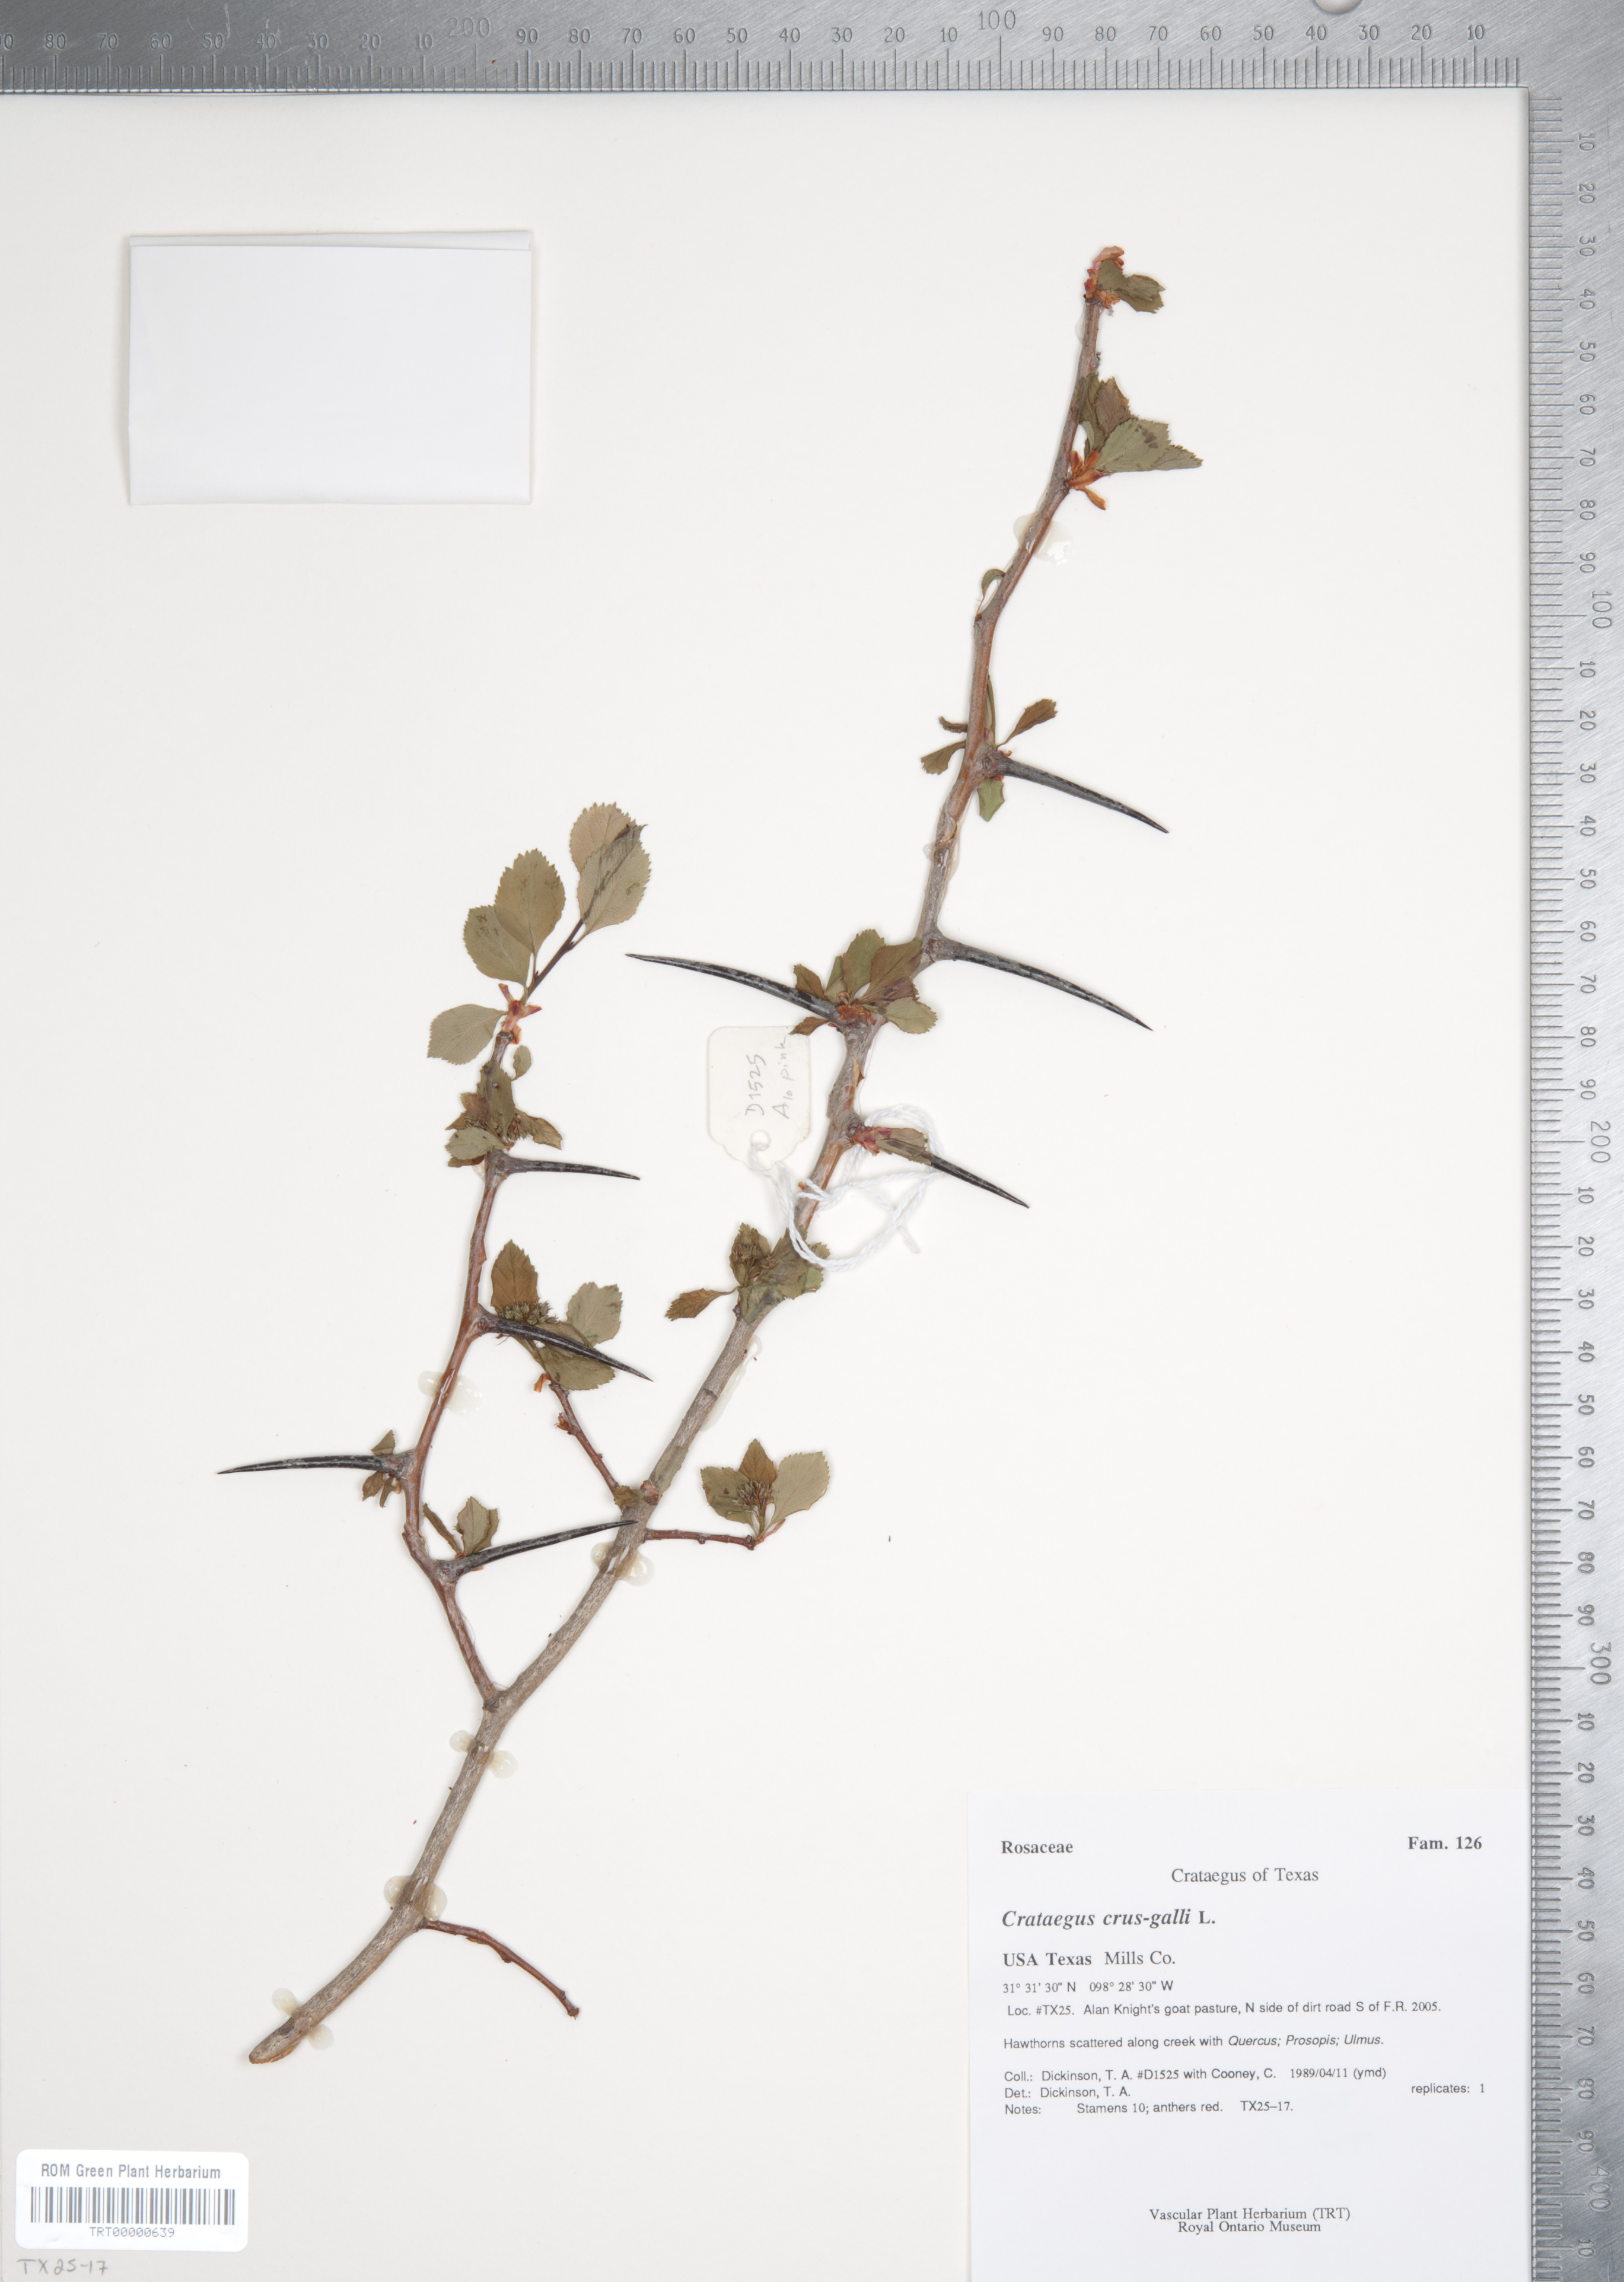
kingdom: Plantae
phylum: Tracheophyta
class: Magnoliopsida
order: Rosales
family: Rosaceae
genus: Crataegus
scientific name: Crataegus crus-galli
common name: Cockspurthorn
